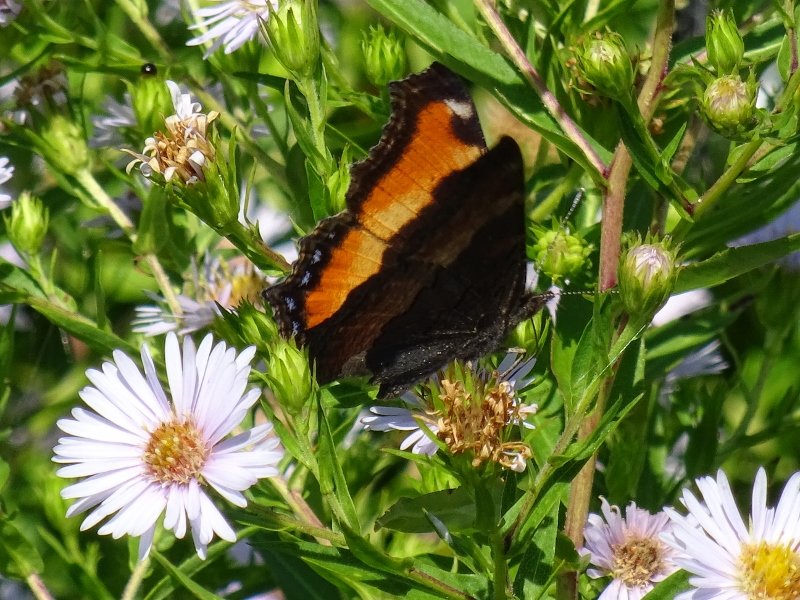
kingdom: Animalia
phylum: Arthropoda
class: Insecta
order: Lepidoptera
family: Nymphalidae
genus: Aglais
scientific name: Aglais milberti
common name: Milbert's Tortoiseshell
